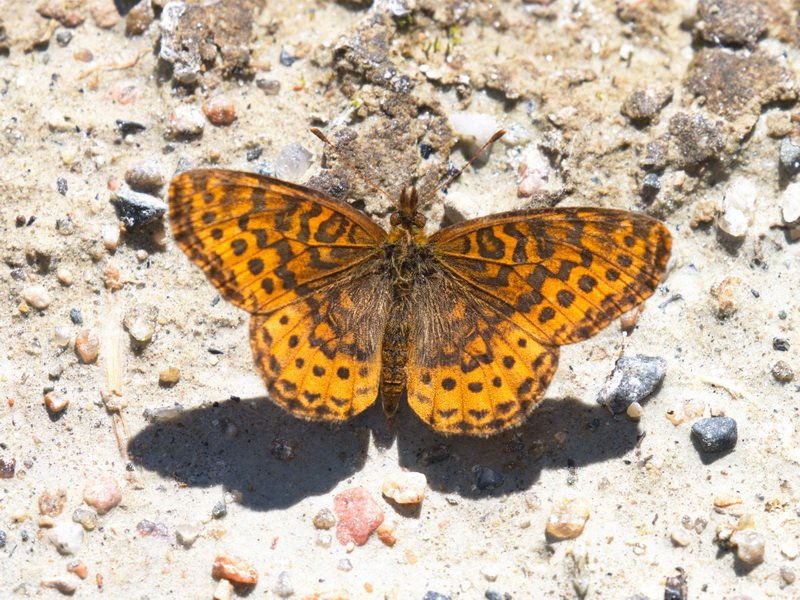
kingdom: Animalia
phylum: Arthropoda
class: Insecta
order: Lepidoptera
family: Nymphalidae
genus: Clossiana
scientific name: Clossiana toddi
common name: Meadow Fritillary
